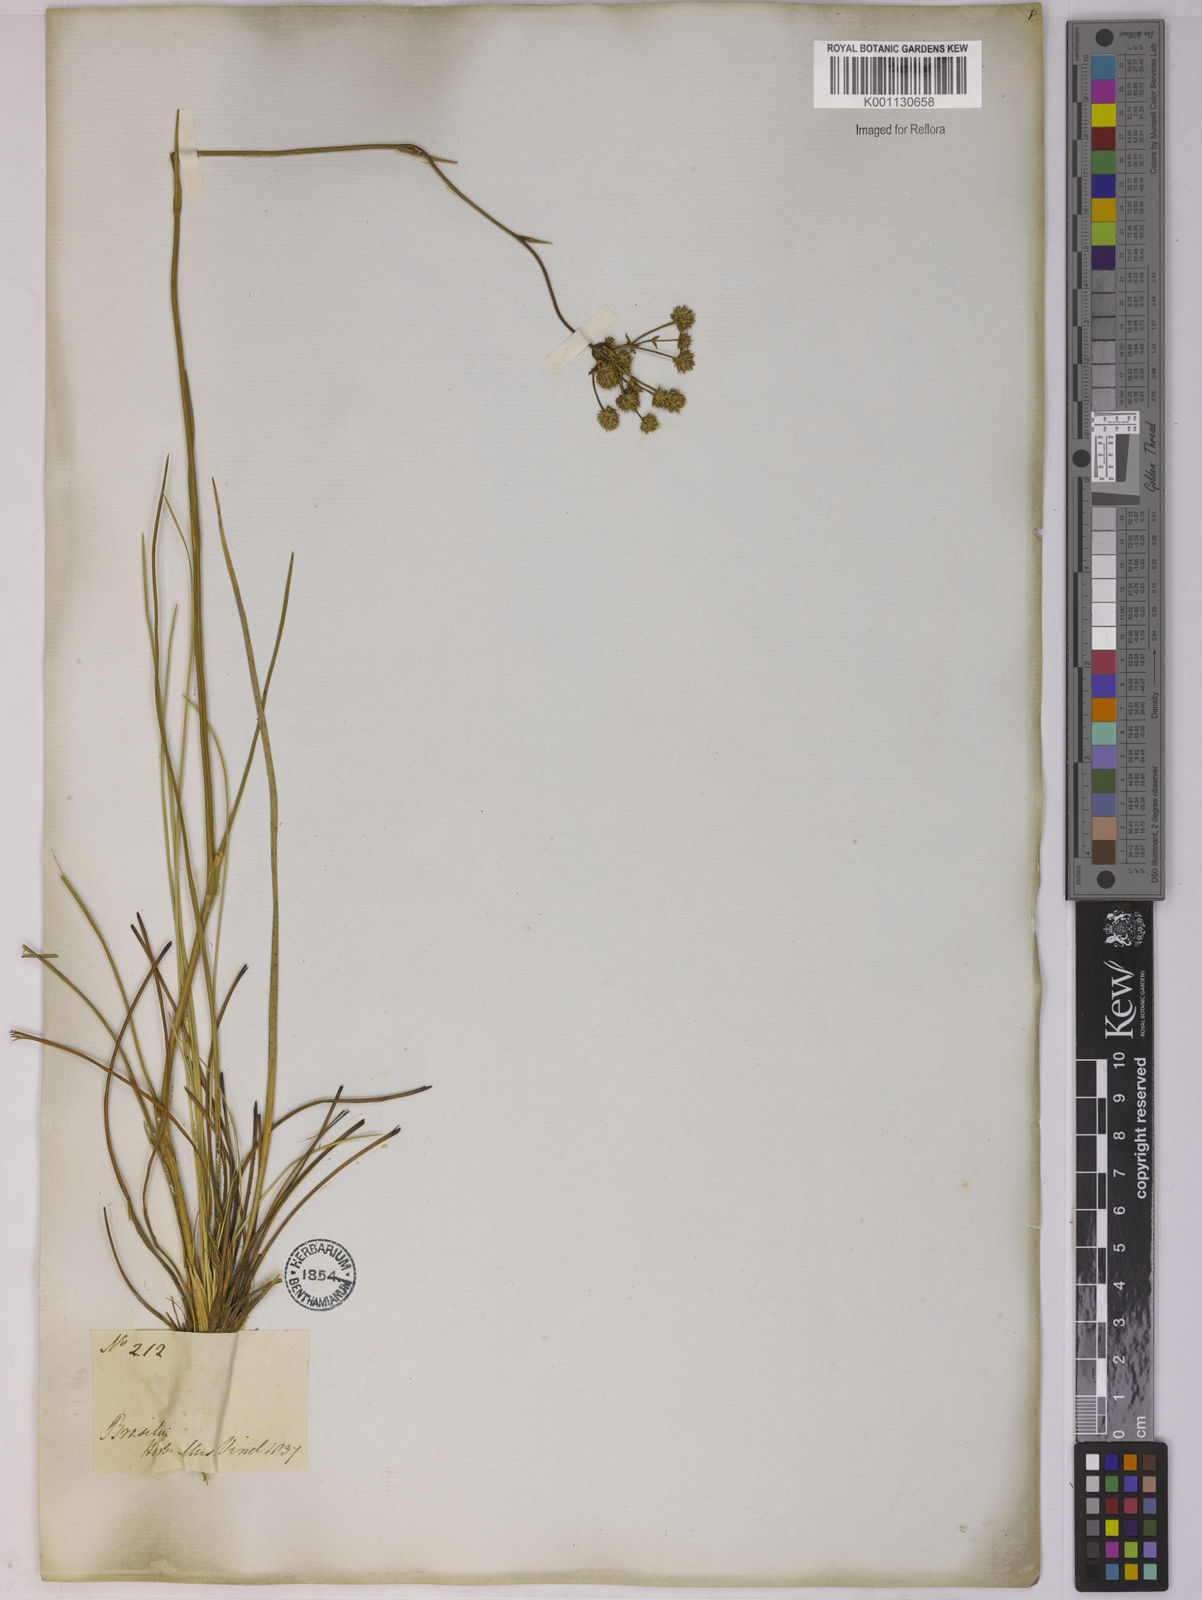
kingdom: Plantae
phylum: Tracheophyta
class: Magnoliopsida
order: Apiales
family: Apiaceae
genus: Eryngium
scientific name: Eryngium junceum
